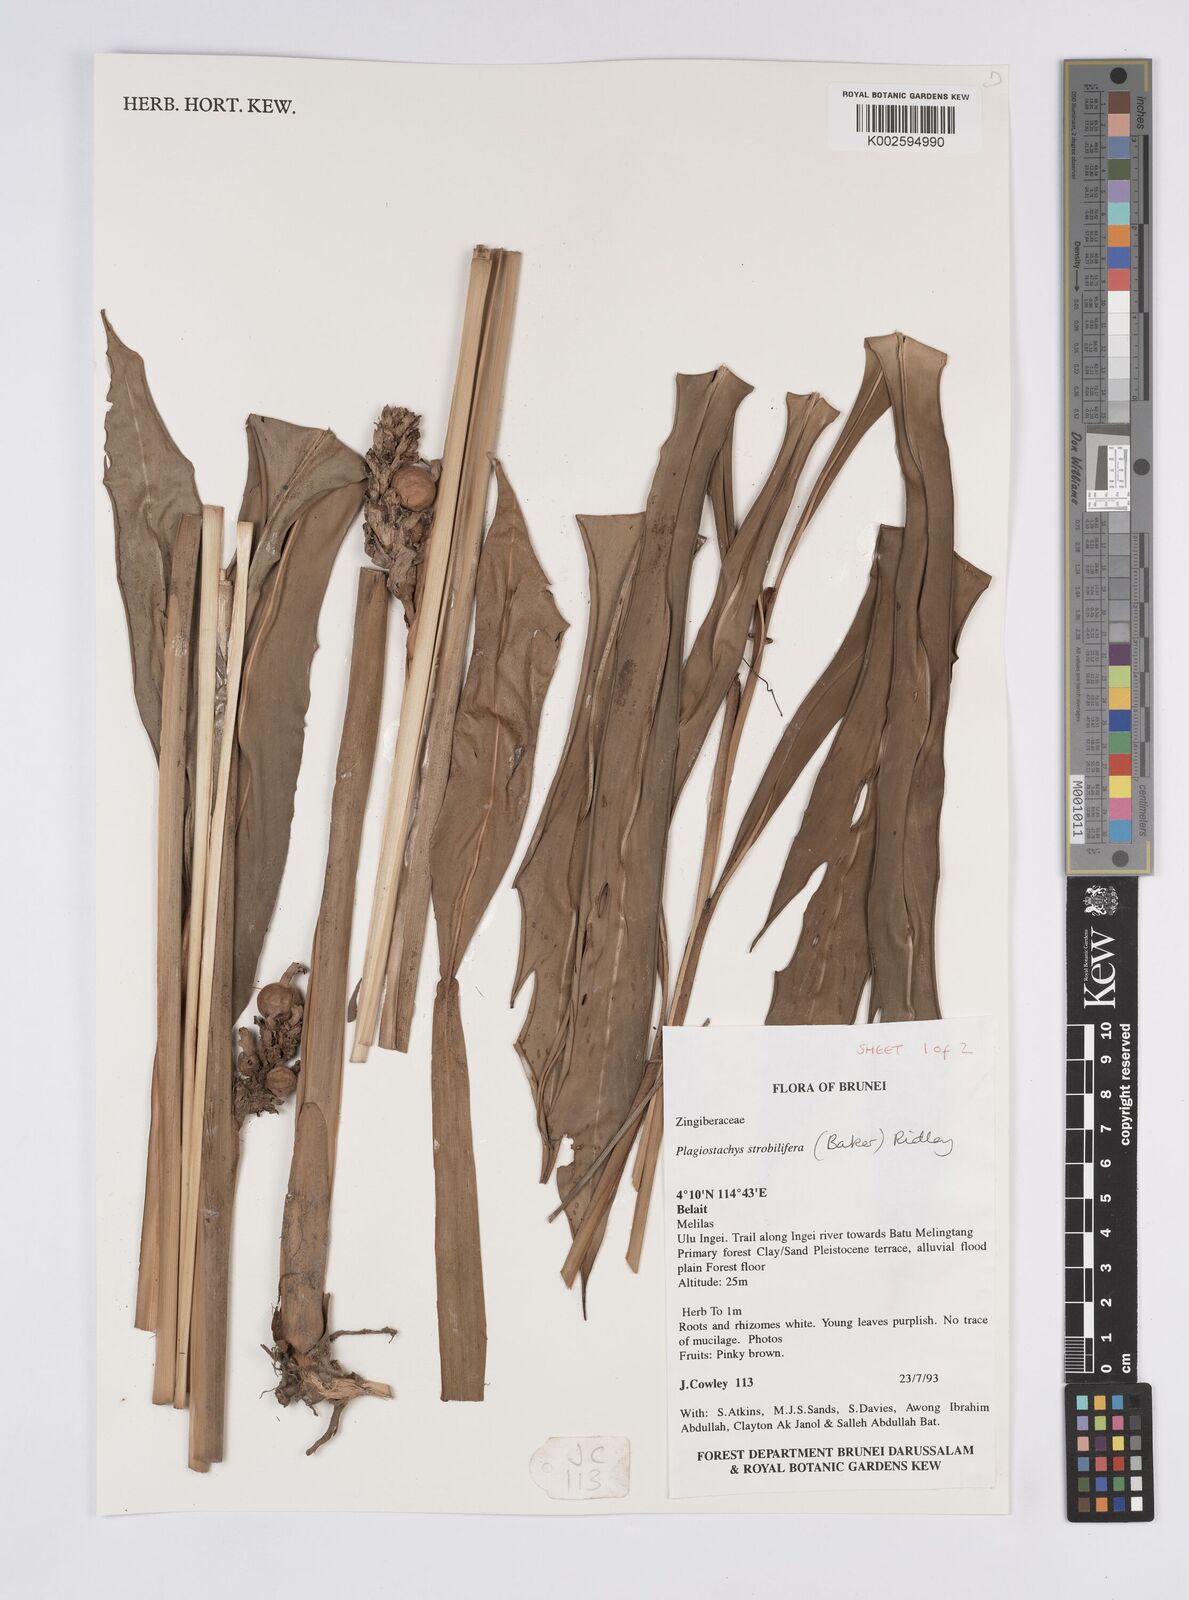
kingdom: Plantae
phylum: Tracheophyta
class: Liliopsida
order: Zingiberales
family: Zingiberaceae
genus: Plagiostachys
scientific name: Plagiostachys strobilifera
